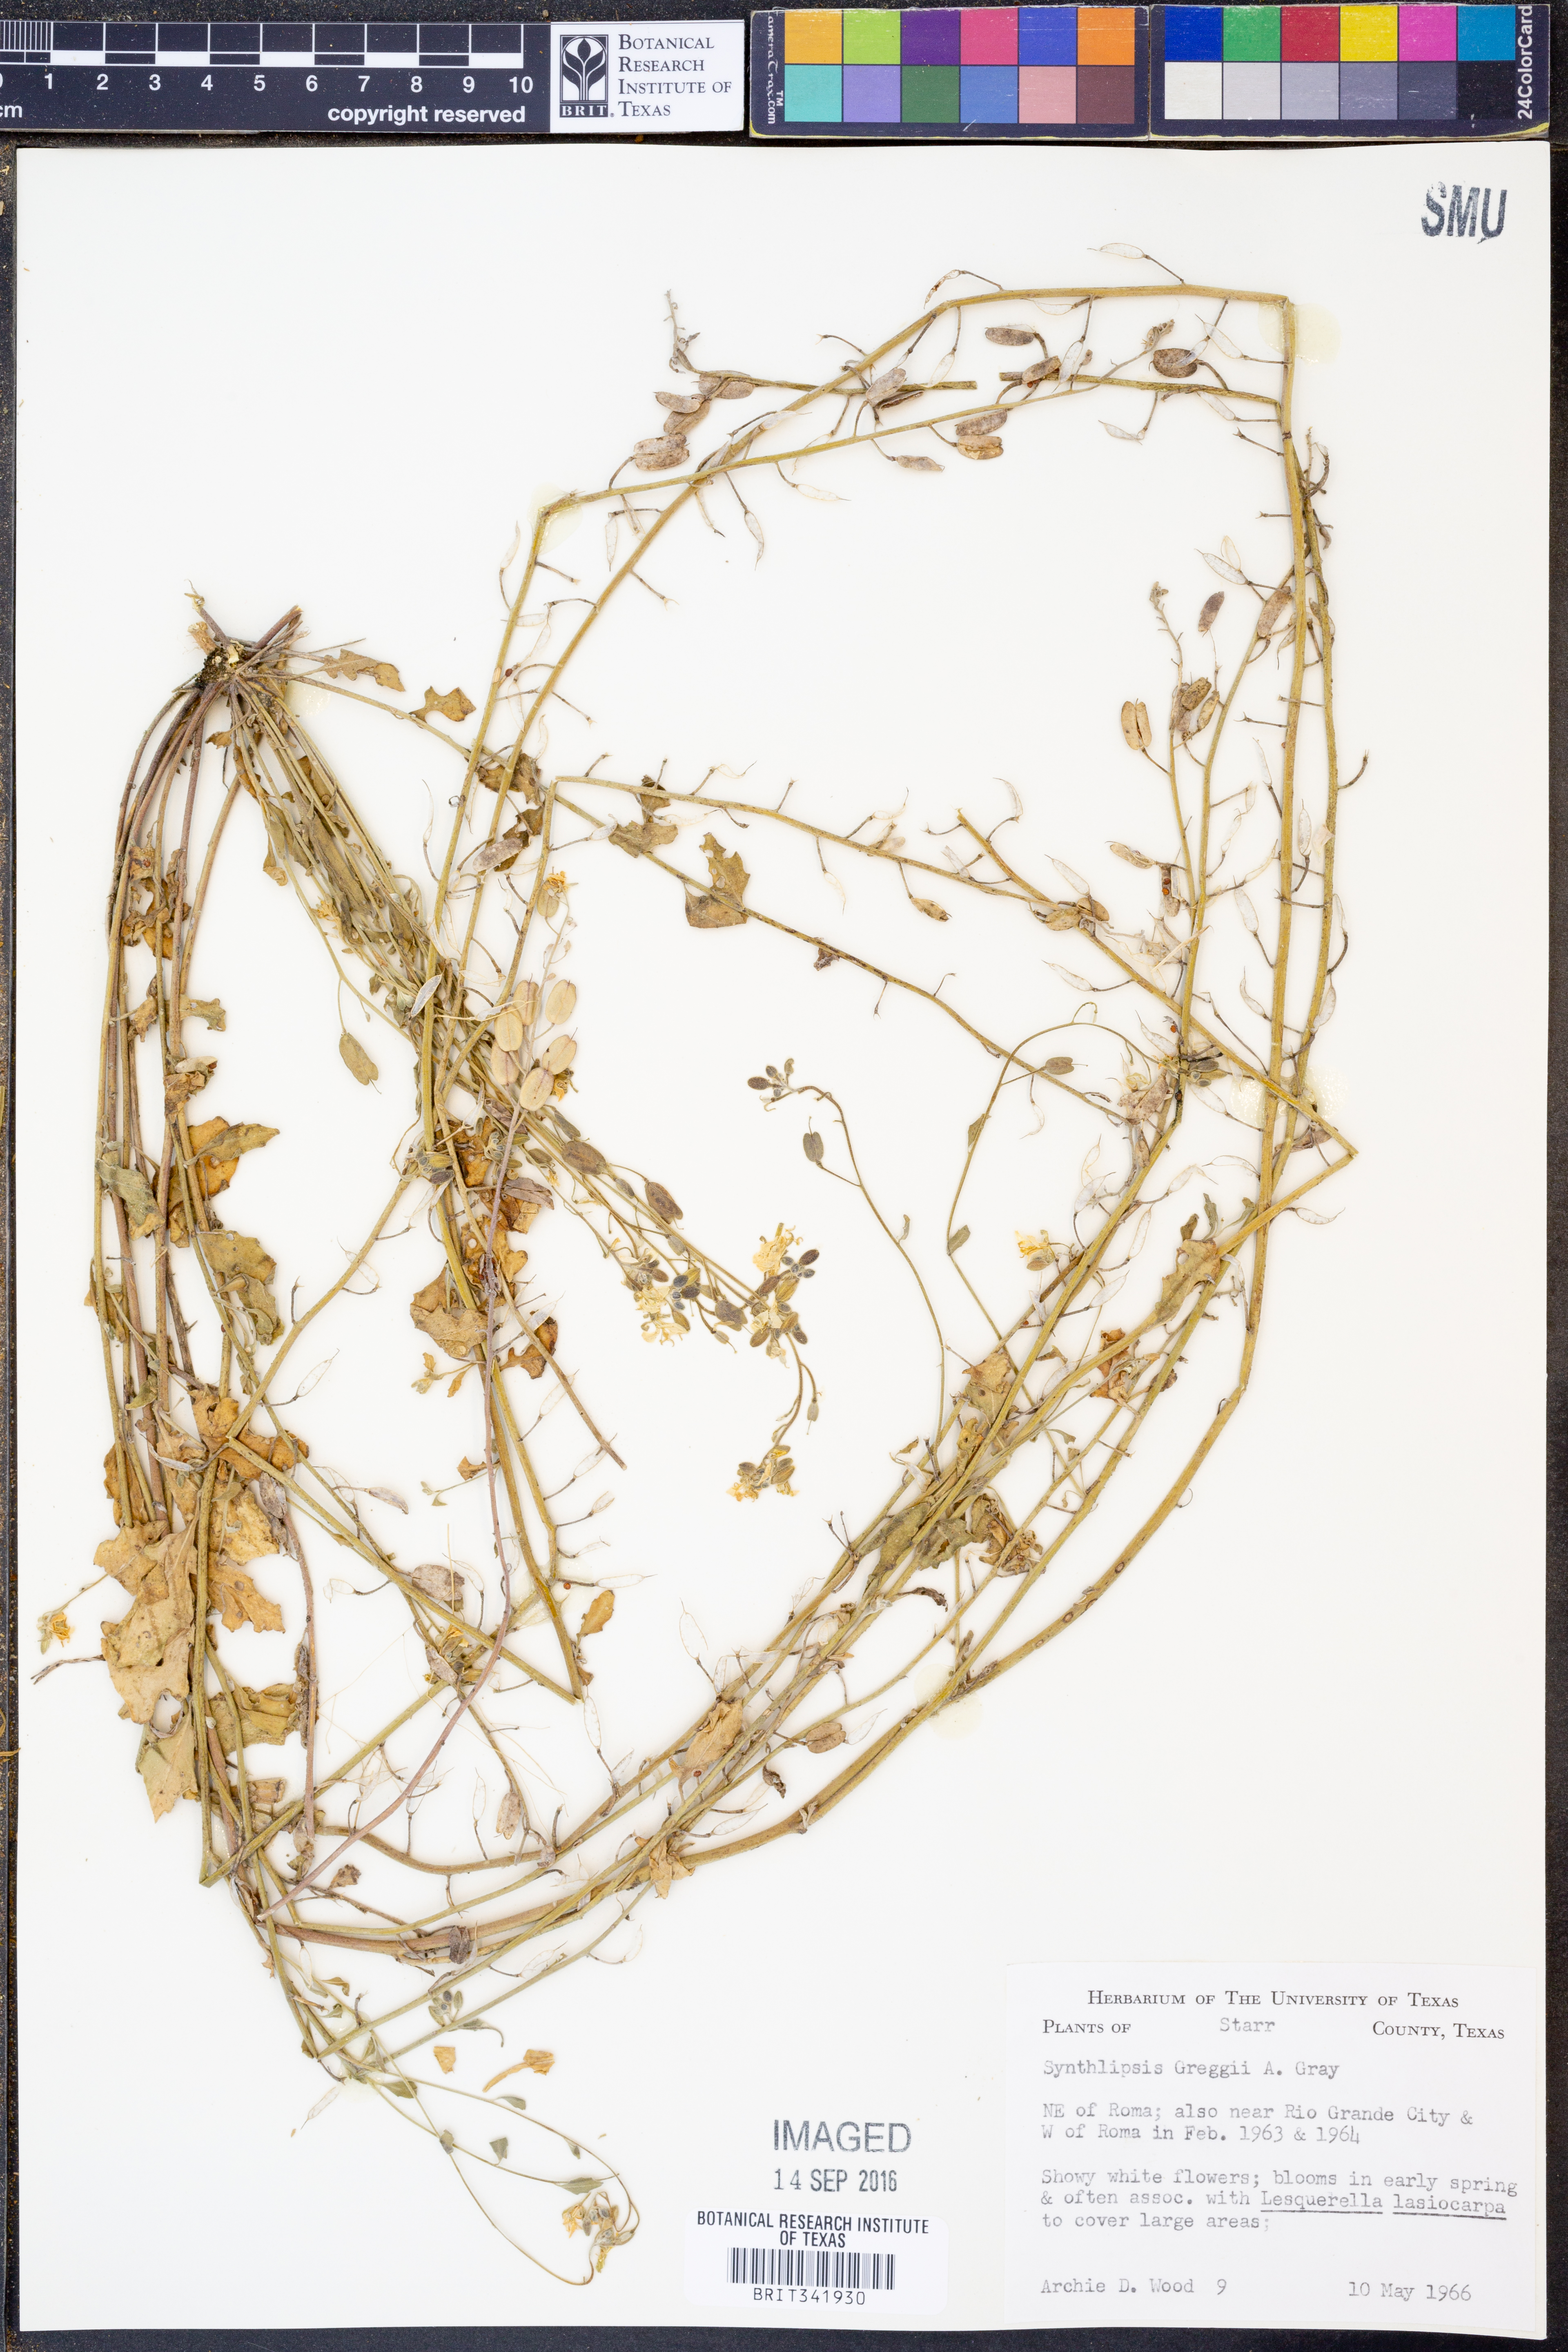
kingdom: Plantae
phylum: Tracheophyta
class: Magnoliopsida
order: Brassicales
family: Brassicaceae
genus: Synthlipsis
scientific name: Synthlipsis greggii
